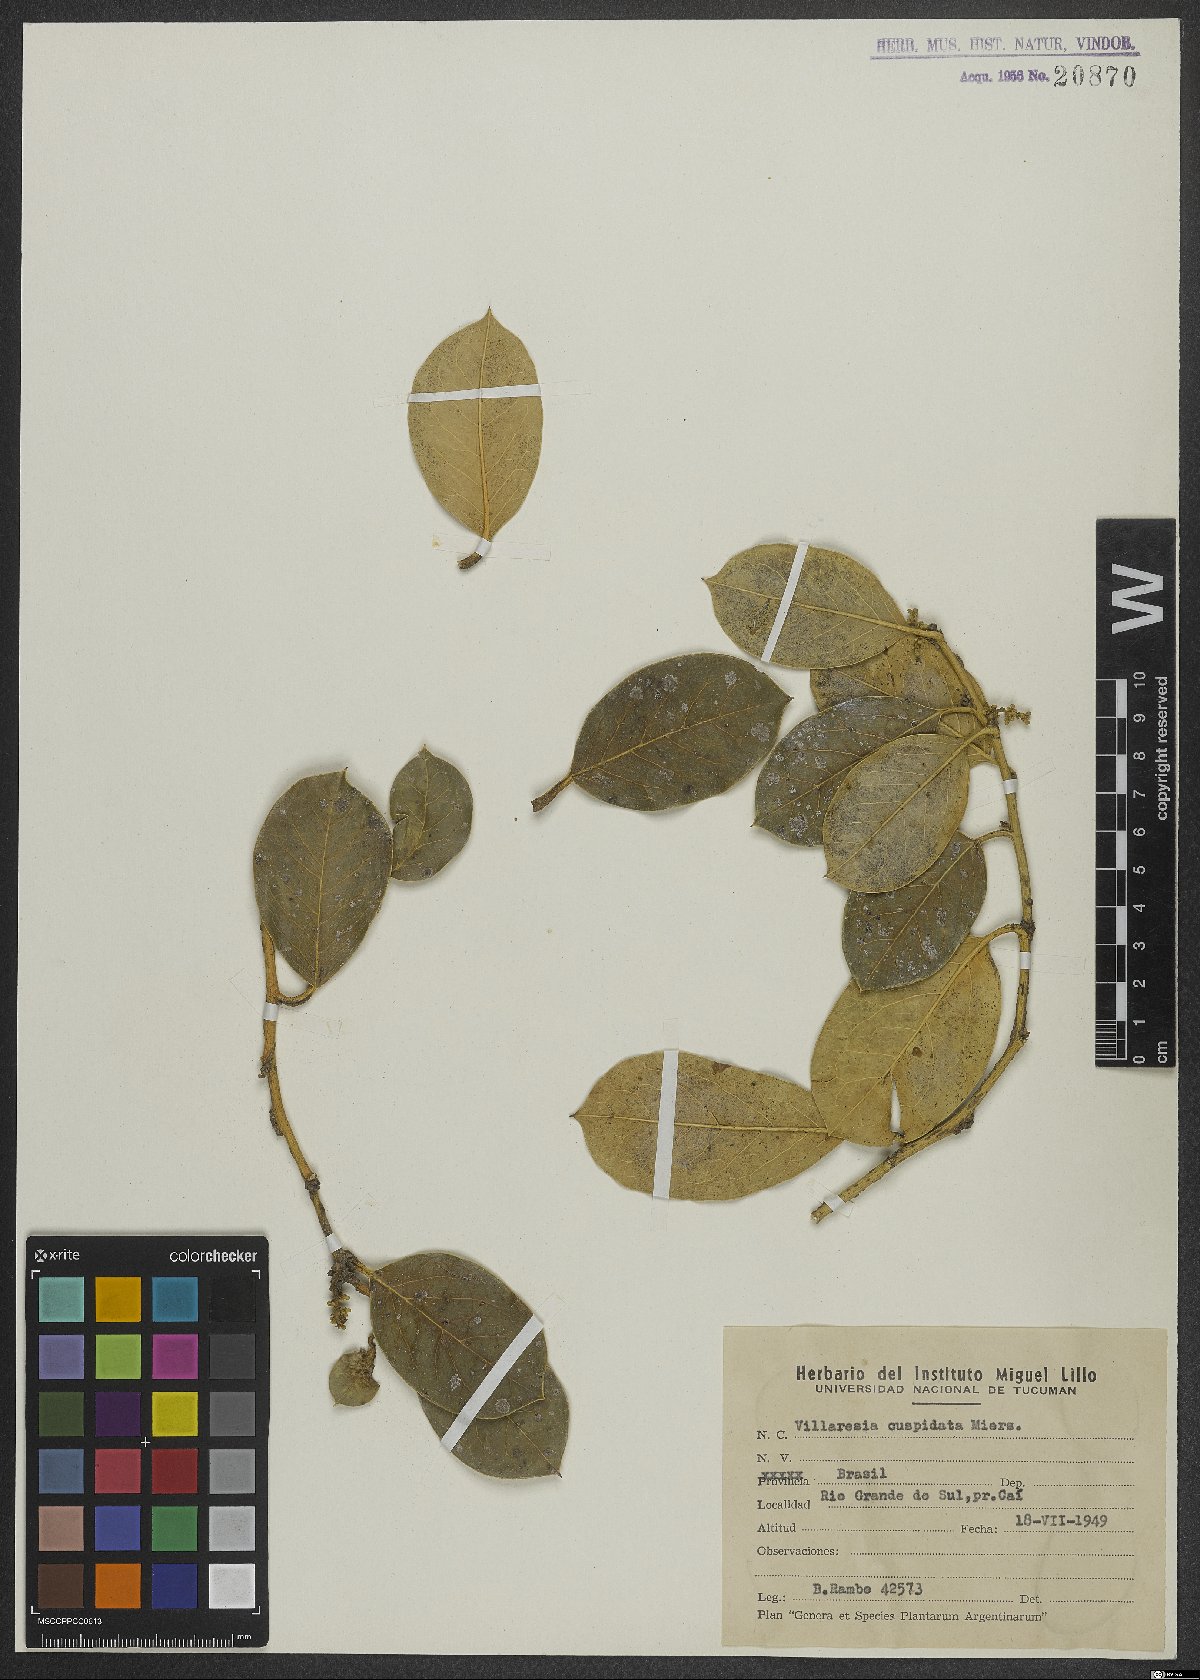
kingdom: Plantae
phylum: Tracheophyta
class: Magnoliopsida
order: Cardiopteridales
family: Cardiopteridaceae
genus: Citronella
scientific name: Citronella gongonha
